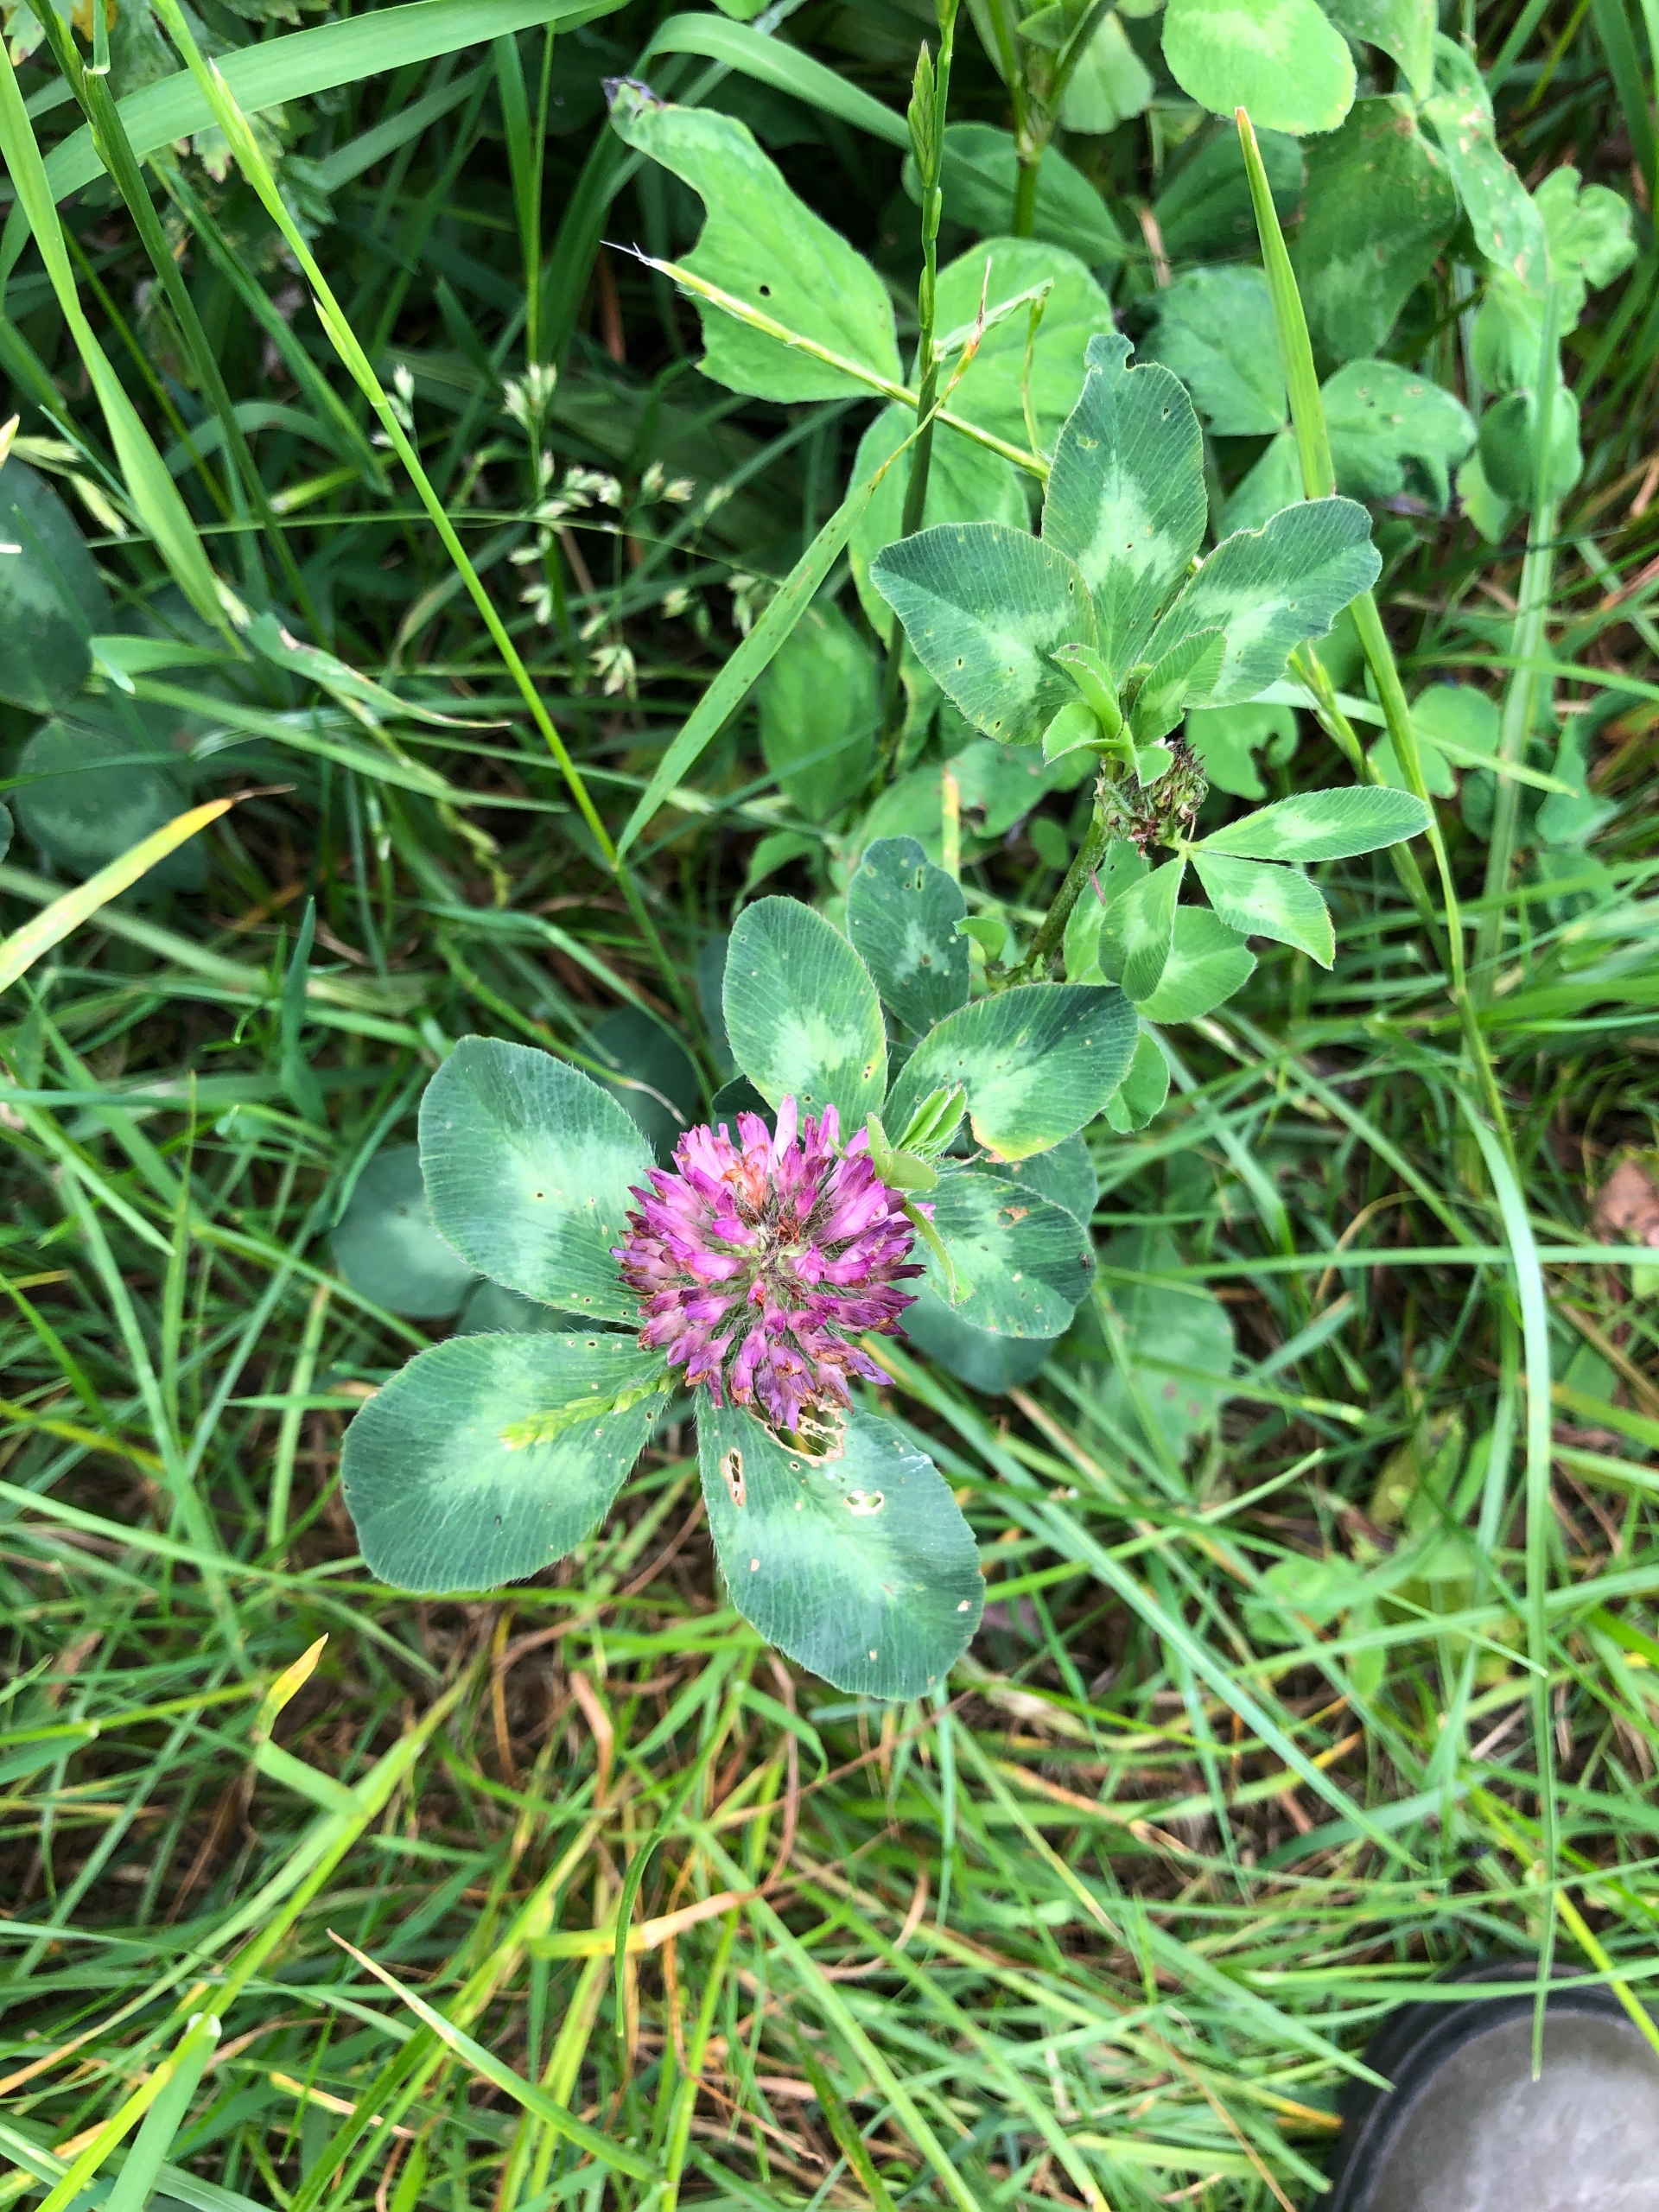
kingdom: Plantae
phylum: Tracheophyta
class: Magnoliopsida
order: Fabales
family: Fabaceae
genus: Trifolium
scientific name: Trifolium pratense
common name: Rød-kløver
